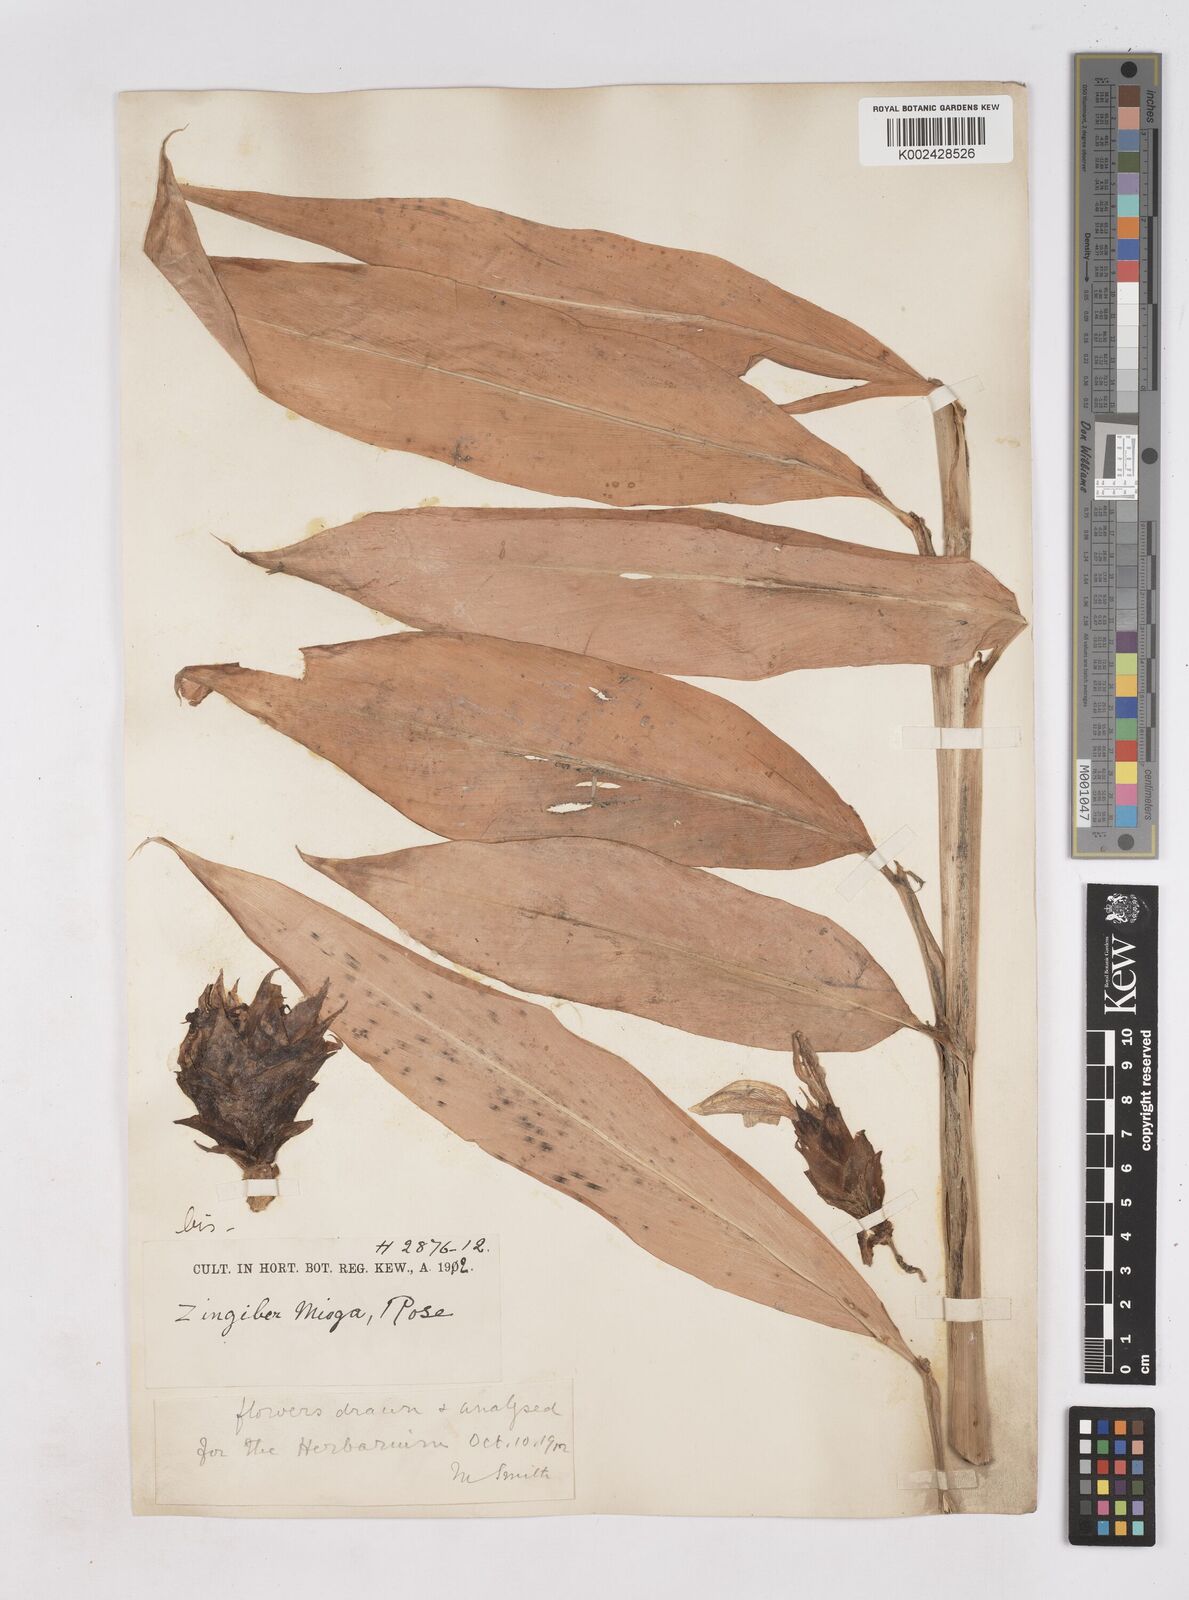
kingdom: Plantae
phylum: Tracheophyta
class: Liliopsida
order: Zingiberales
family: Zingiberaceae
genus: Zingiber
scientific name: Zingiber mioga
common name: Japanese ginger
